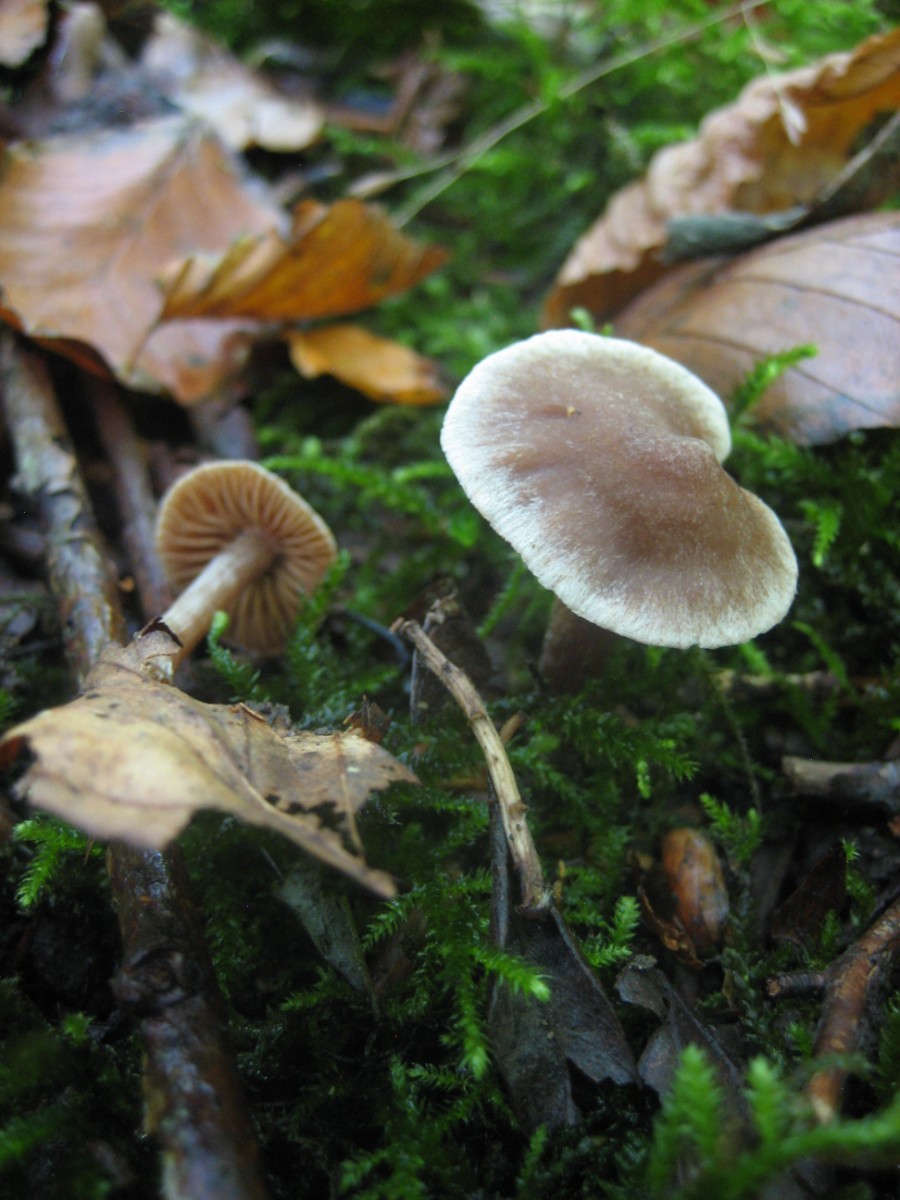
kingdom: Fungi
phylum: Basidiomycota
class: Agaricomycetes
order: Agaricales
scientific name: Agaricales
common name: champignonordenen
